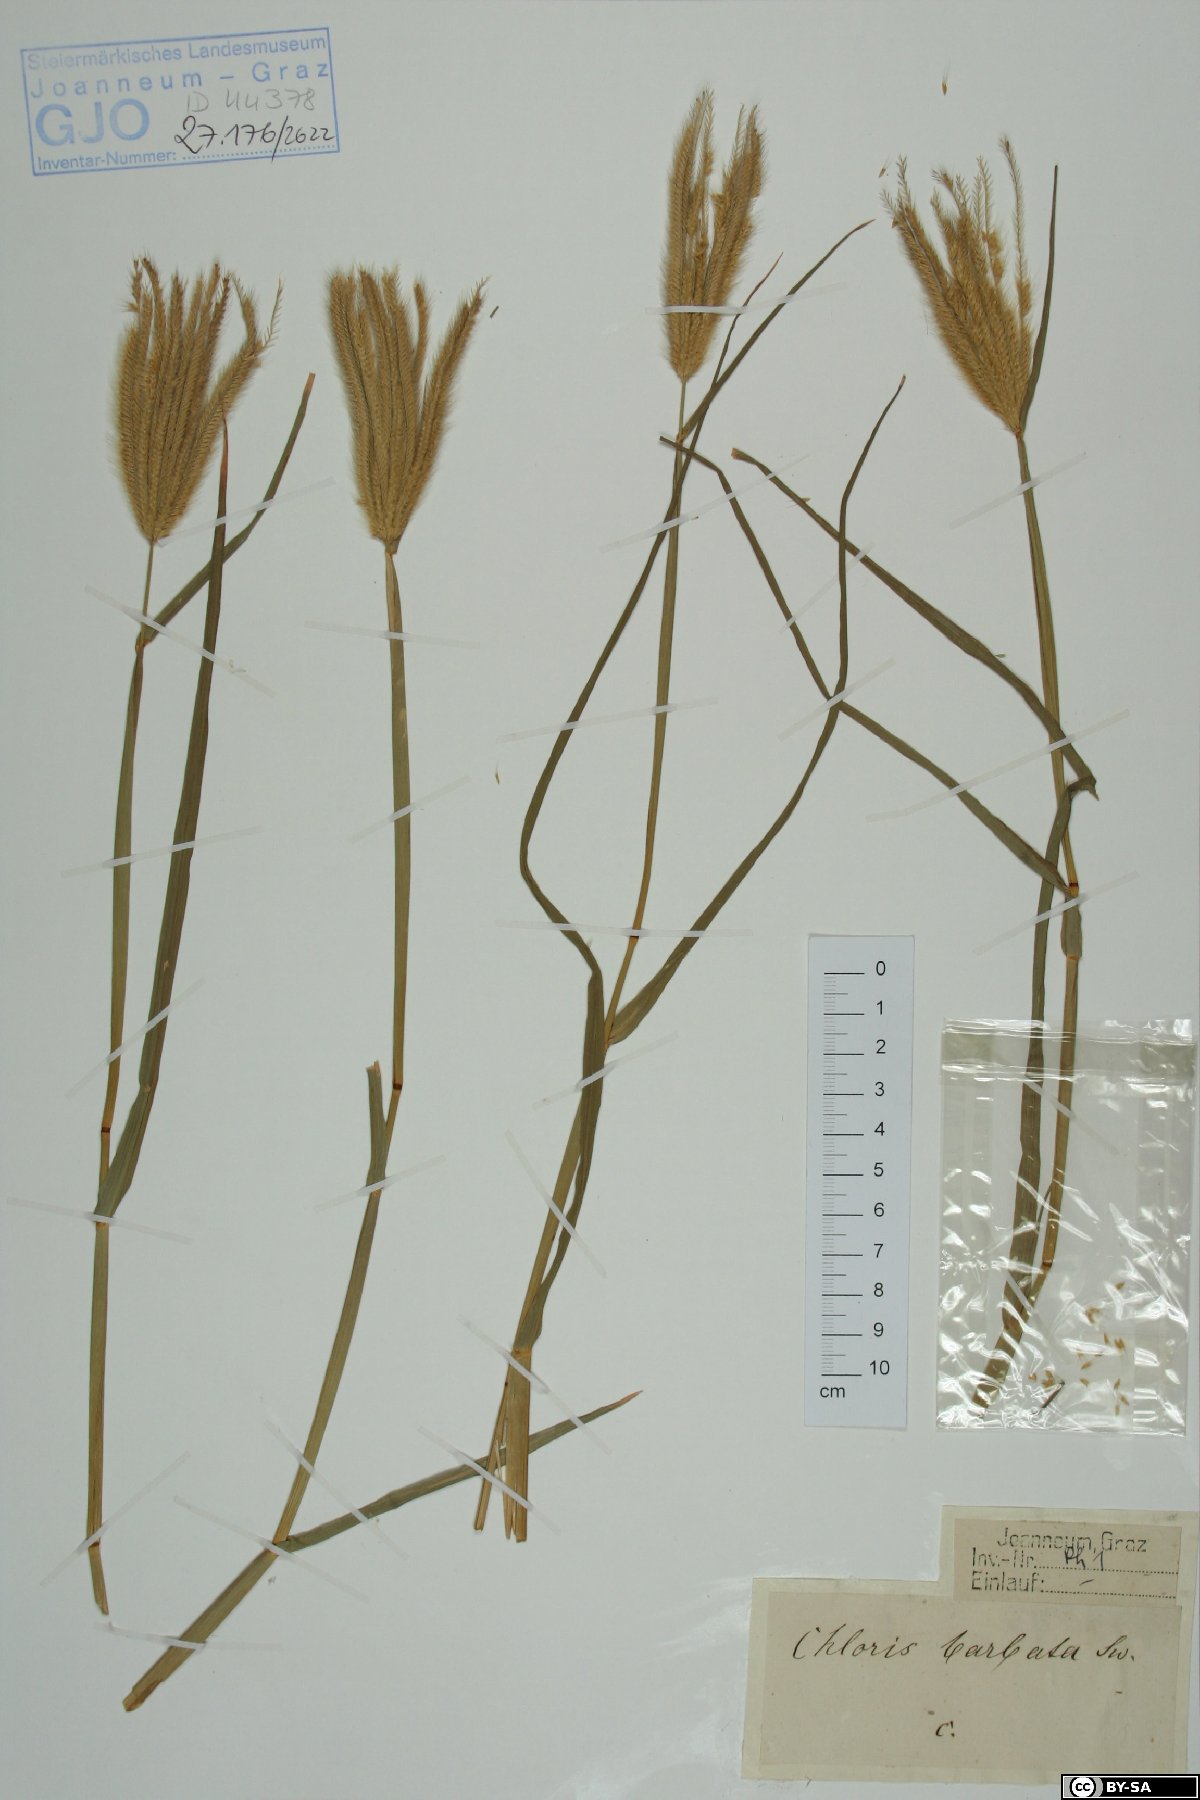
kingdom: Plantae
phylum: Tracheophyta
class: Liliopsida
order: Poales
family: Poaceae
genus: Chloris
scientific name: Chloris barbata
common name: Swollen fingergrass
